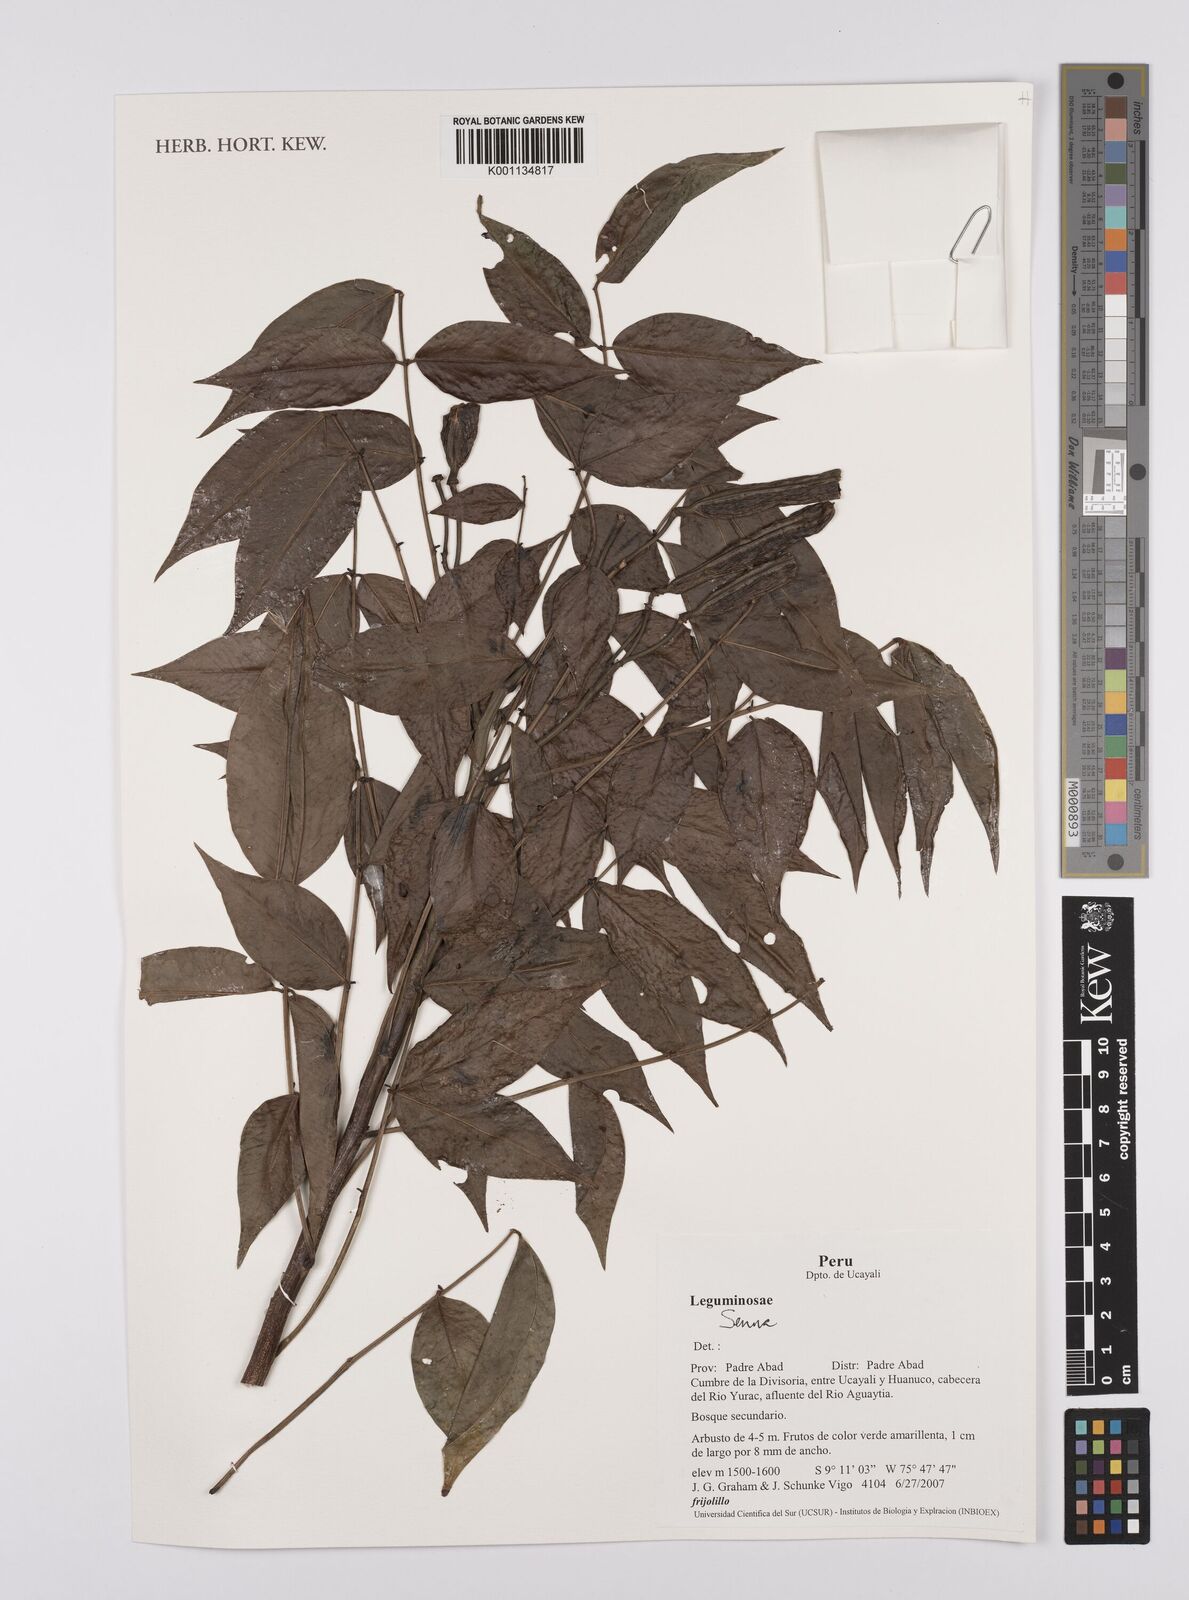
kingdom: Plantae
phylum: Tracheophyta
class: Magnoliopsida
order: Fabales
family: Fabaceae
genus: Senna
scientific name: Senna
